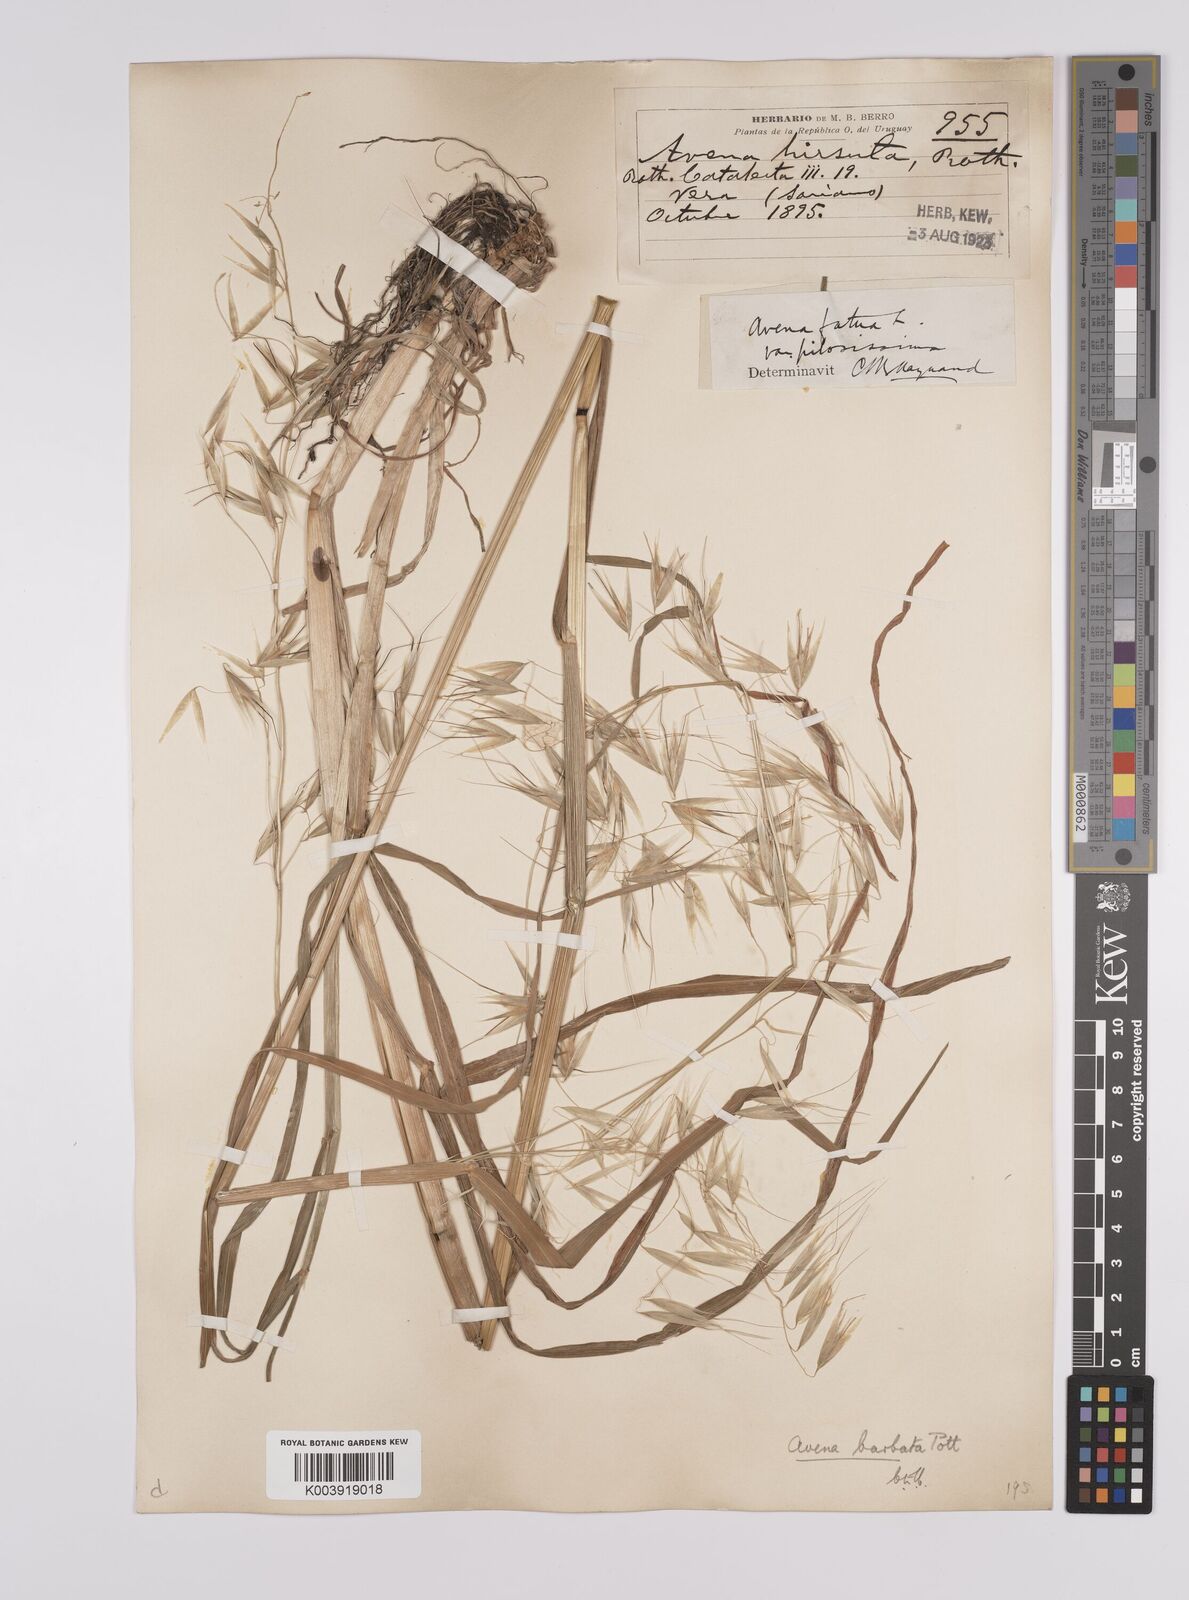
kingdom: Plantae
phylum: Tracheophyta
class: Liliopsida
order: Poales
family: Poaceae
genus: Avena
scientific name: Avena barbata
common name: Slender oat
